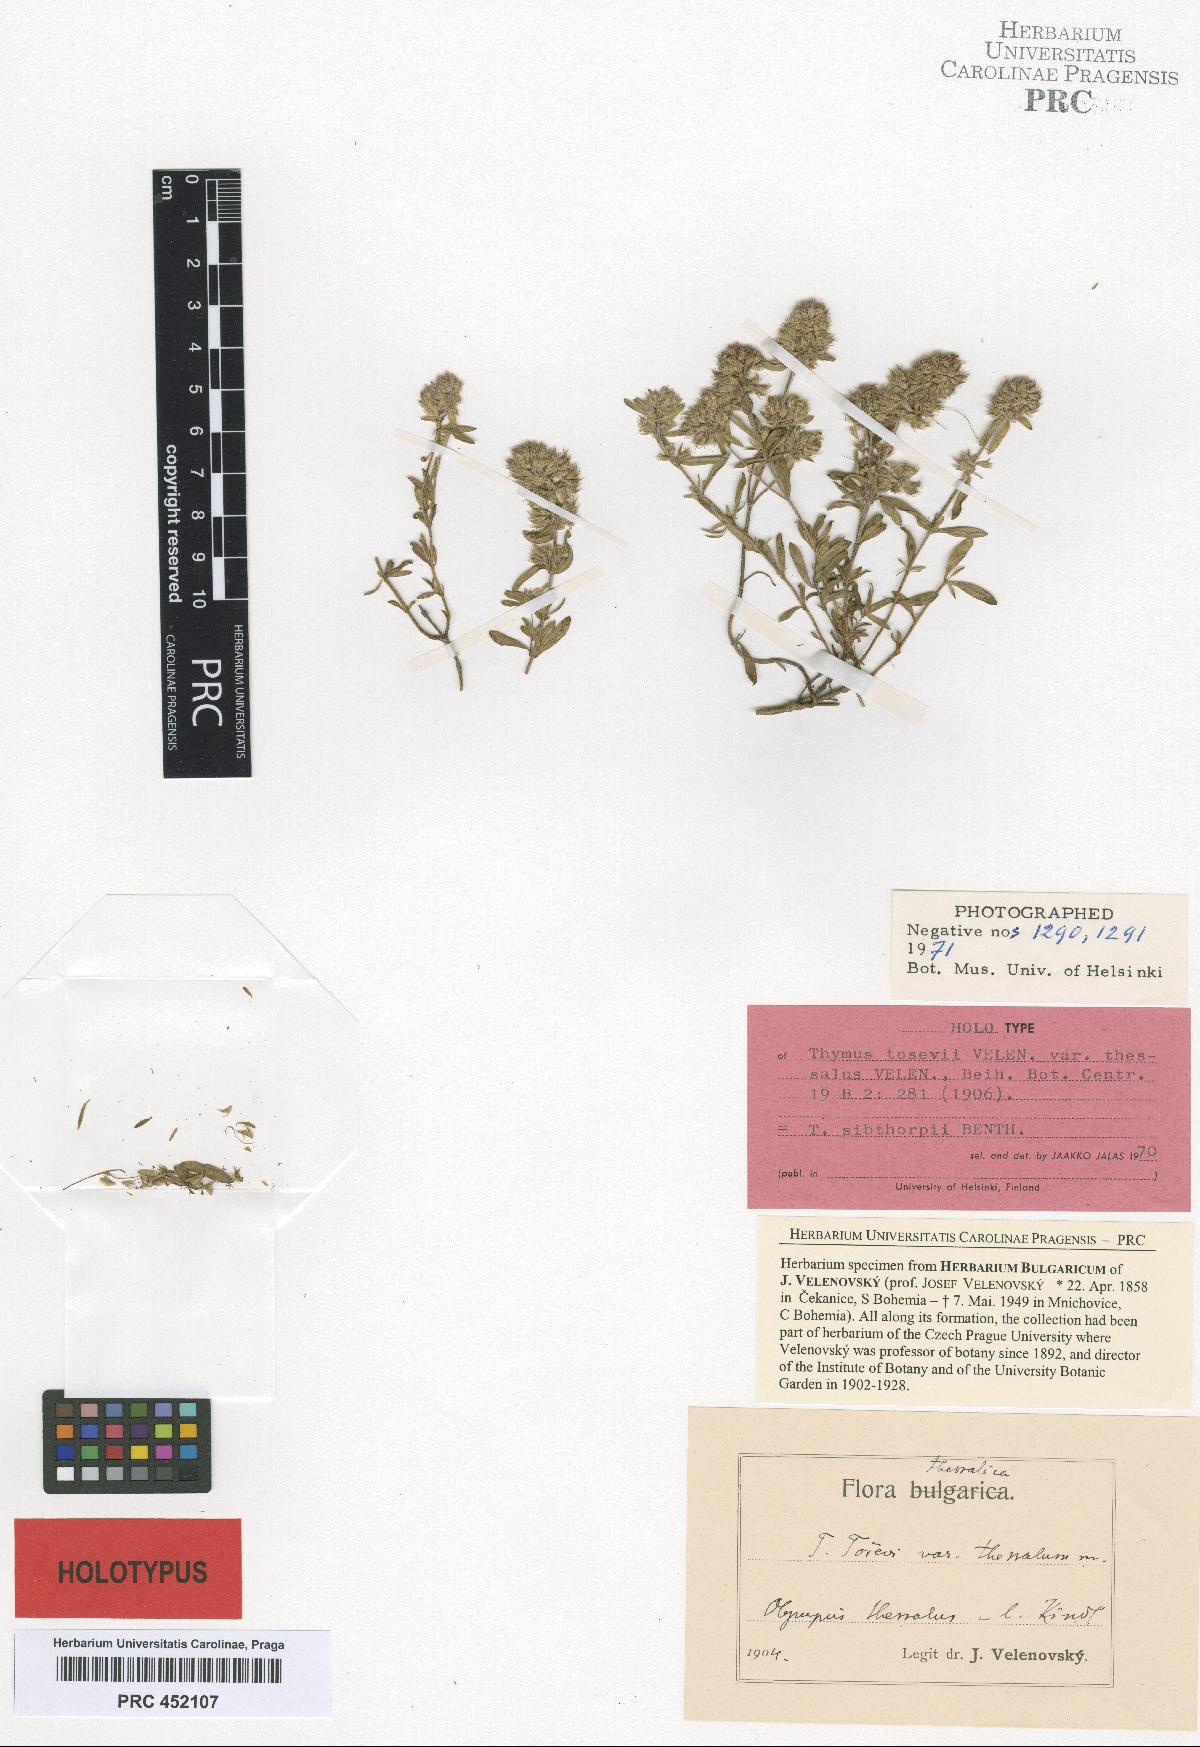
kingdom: Plantae
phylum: Tracheophyta
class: Magnoliopsida
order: Lamiales
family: Lamiaceae
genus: Thymus
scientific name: Thymus sibthorpii
